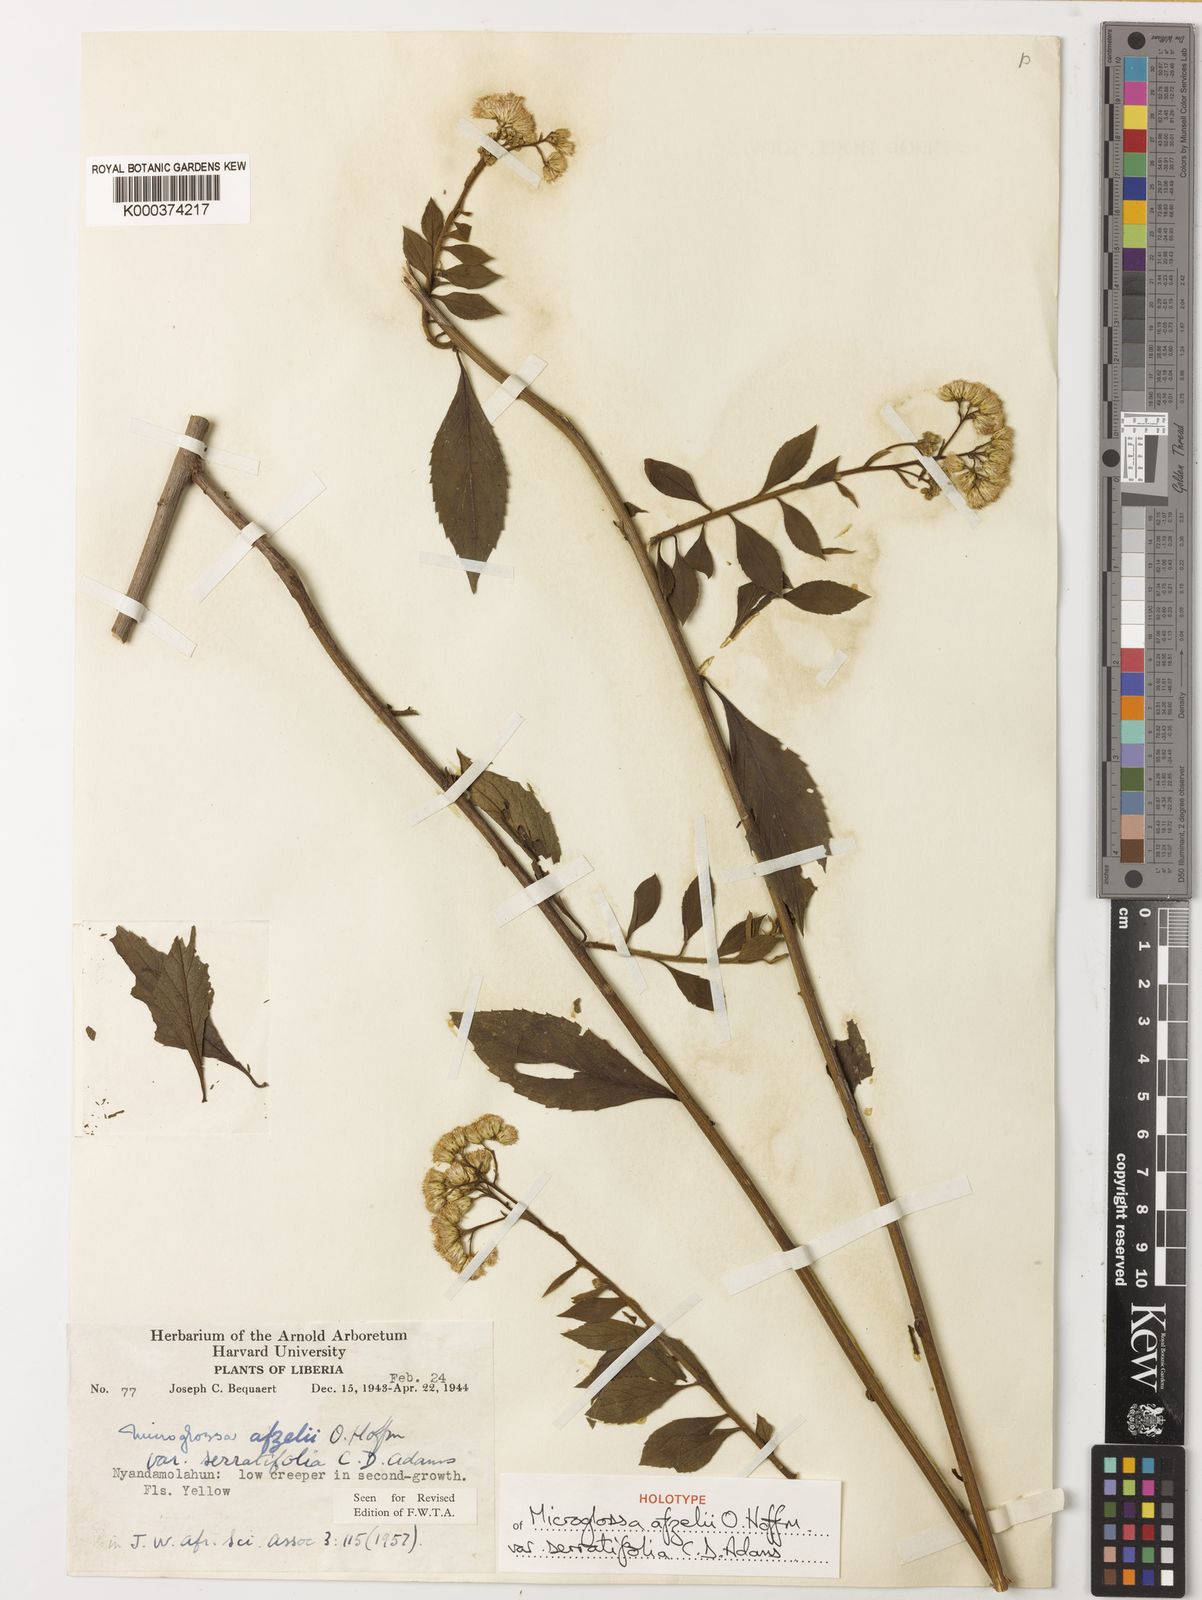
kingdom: Plantae
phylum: Tracheophyta
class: Magnoliopsida
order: Asterales
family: Asteraceae
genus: Microglossa
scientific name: Microglossa
